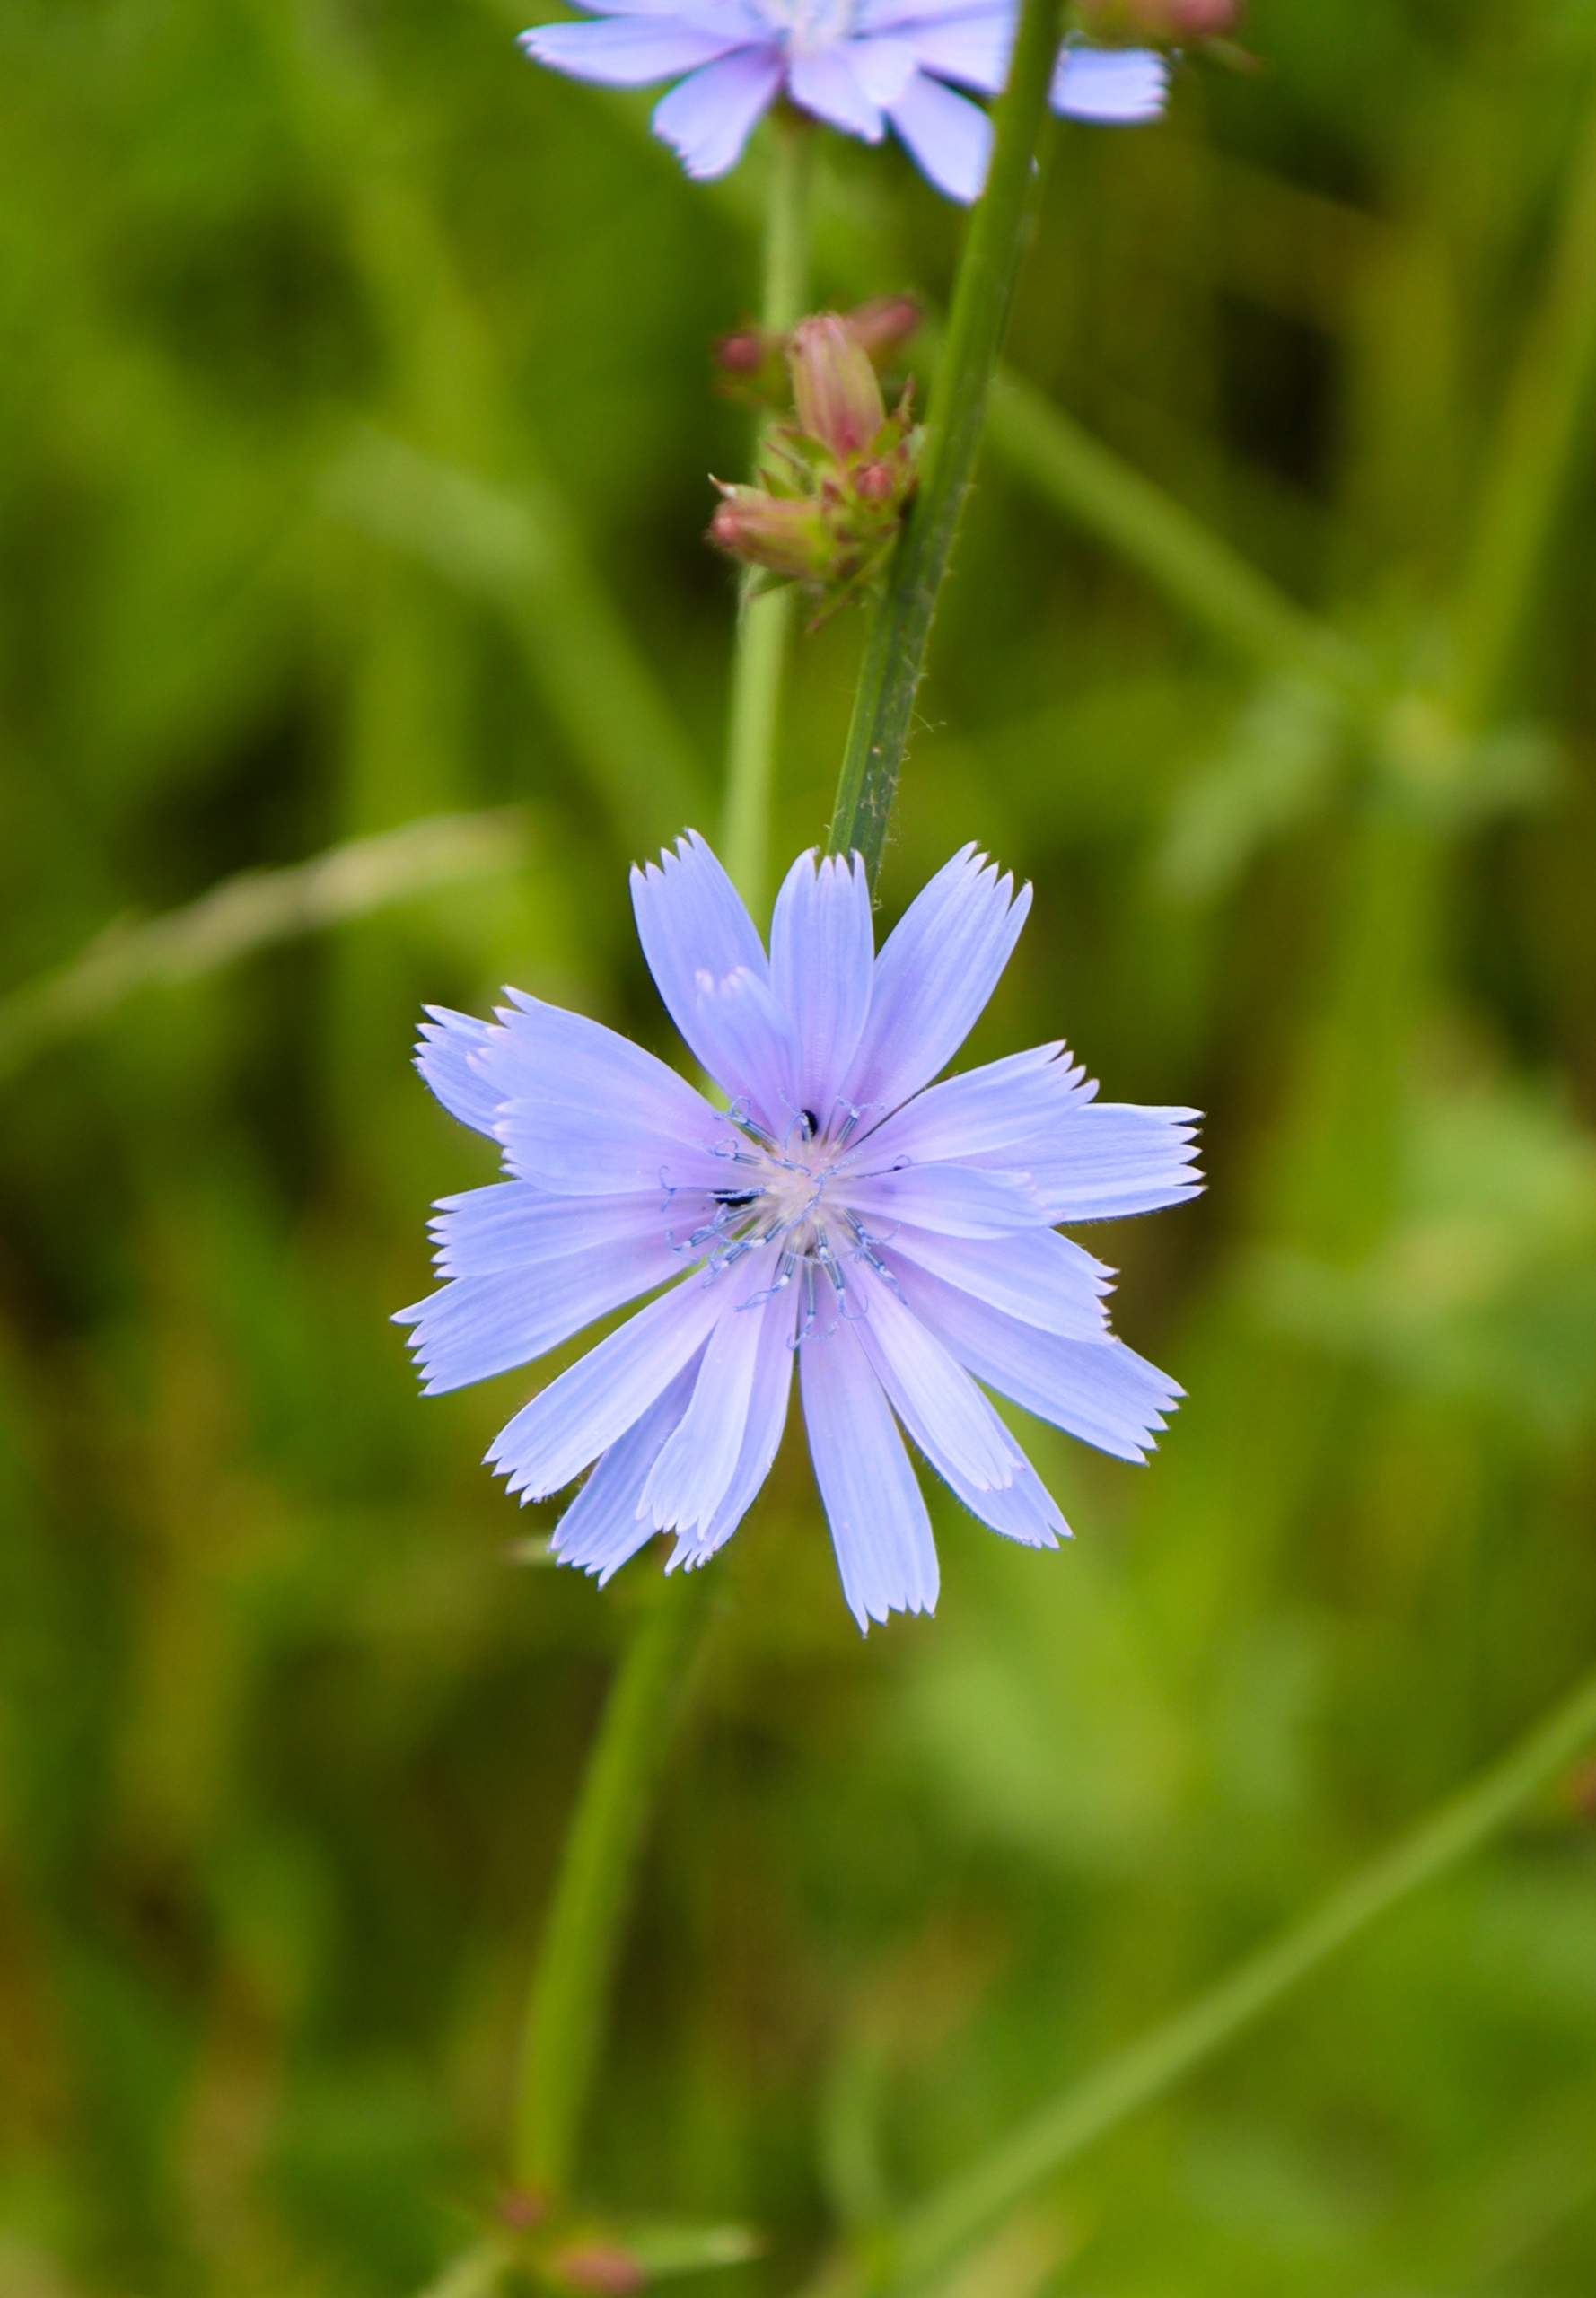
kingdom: Plantae
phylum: Tracheophyta
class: Magnoliopsida
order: Asterales
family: Asteraceae
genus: Cichorium
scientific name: Cichorium intybus
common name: Cikorie
